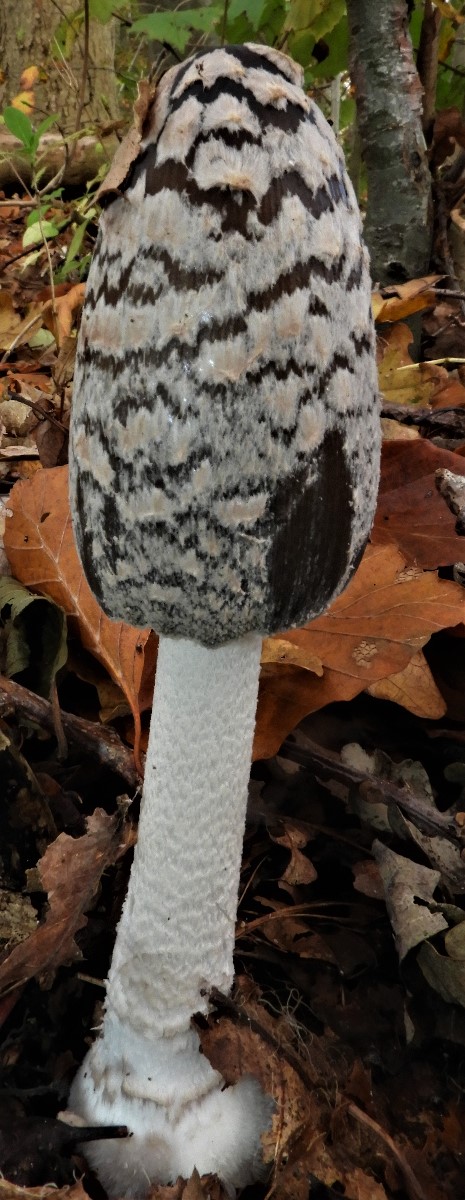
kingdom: Fungi
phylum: Basidiomycota
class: Agaricomycetes
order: Agaricales
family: Psathyrellaceae
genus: Coprinopsis
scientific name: Coprinopsis picacea
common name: skade-blækhat
